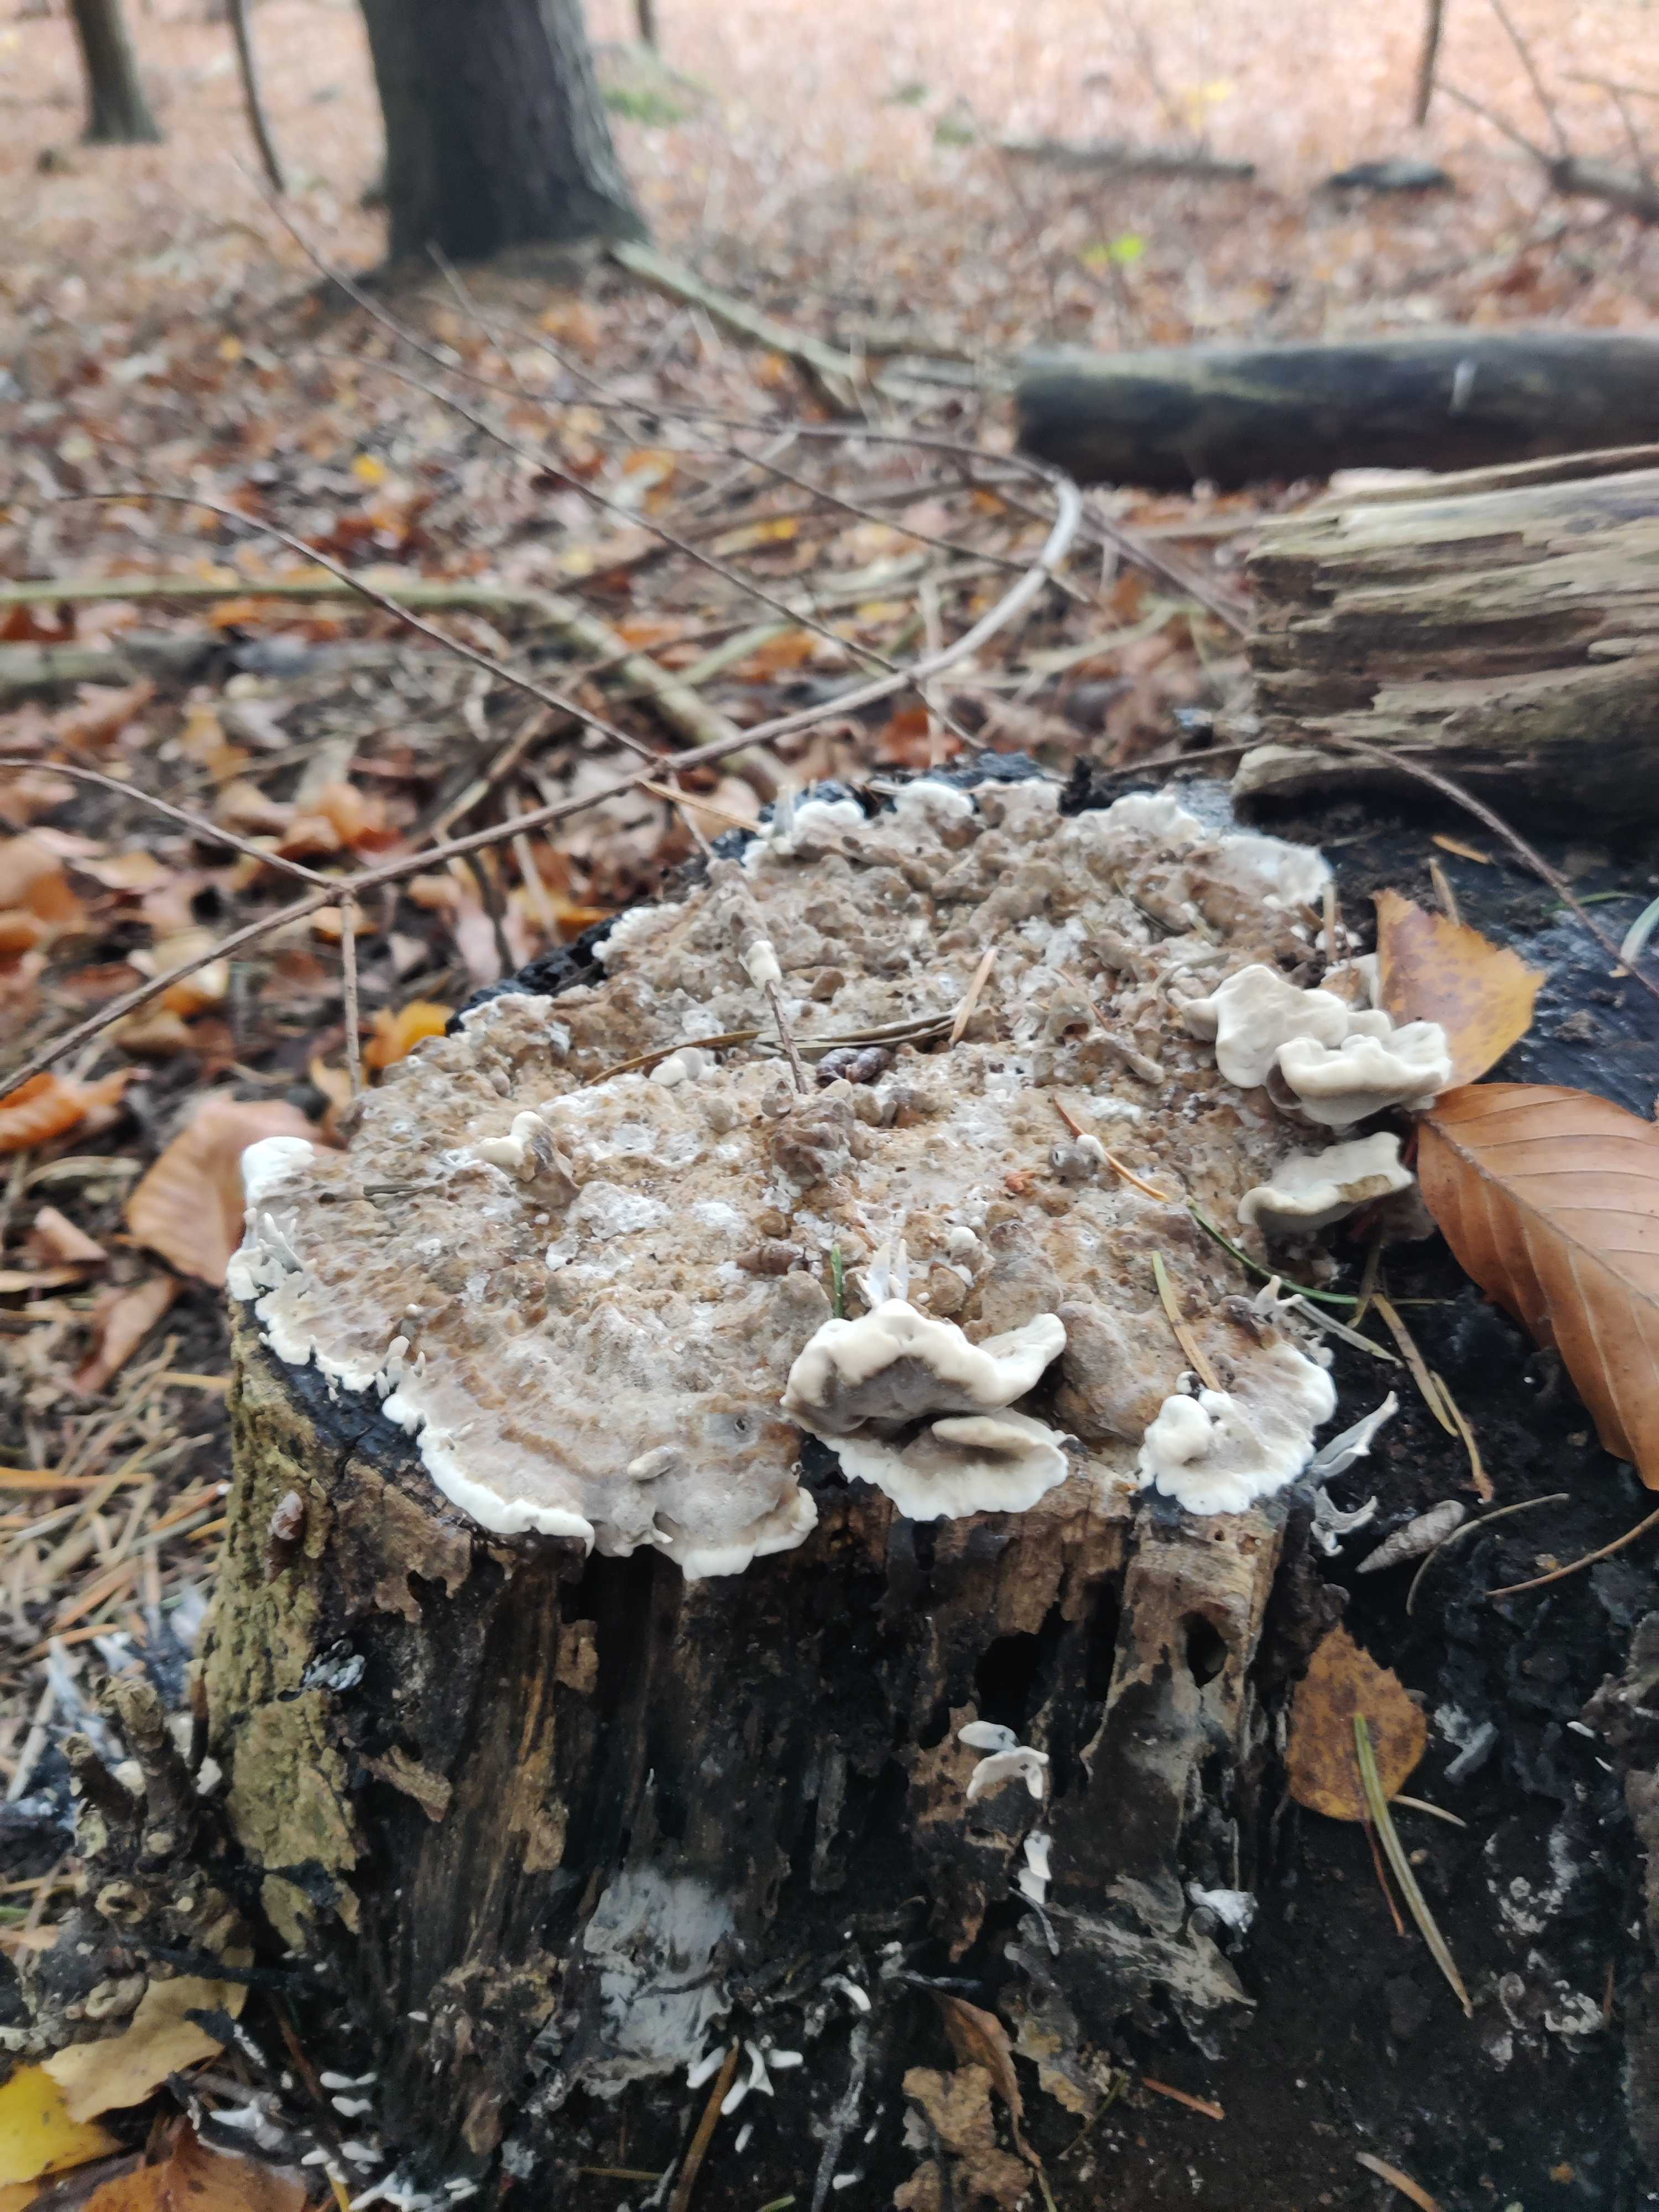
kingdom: Fungi
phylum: Basidiomycota
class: Agaricomycetes
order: Polyporales
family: Phanerochaetaceae
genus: Bjerkandera
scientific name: Bjerkandera adusta
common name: sveden sodporesvamp
